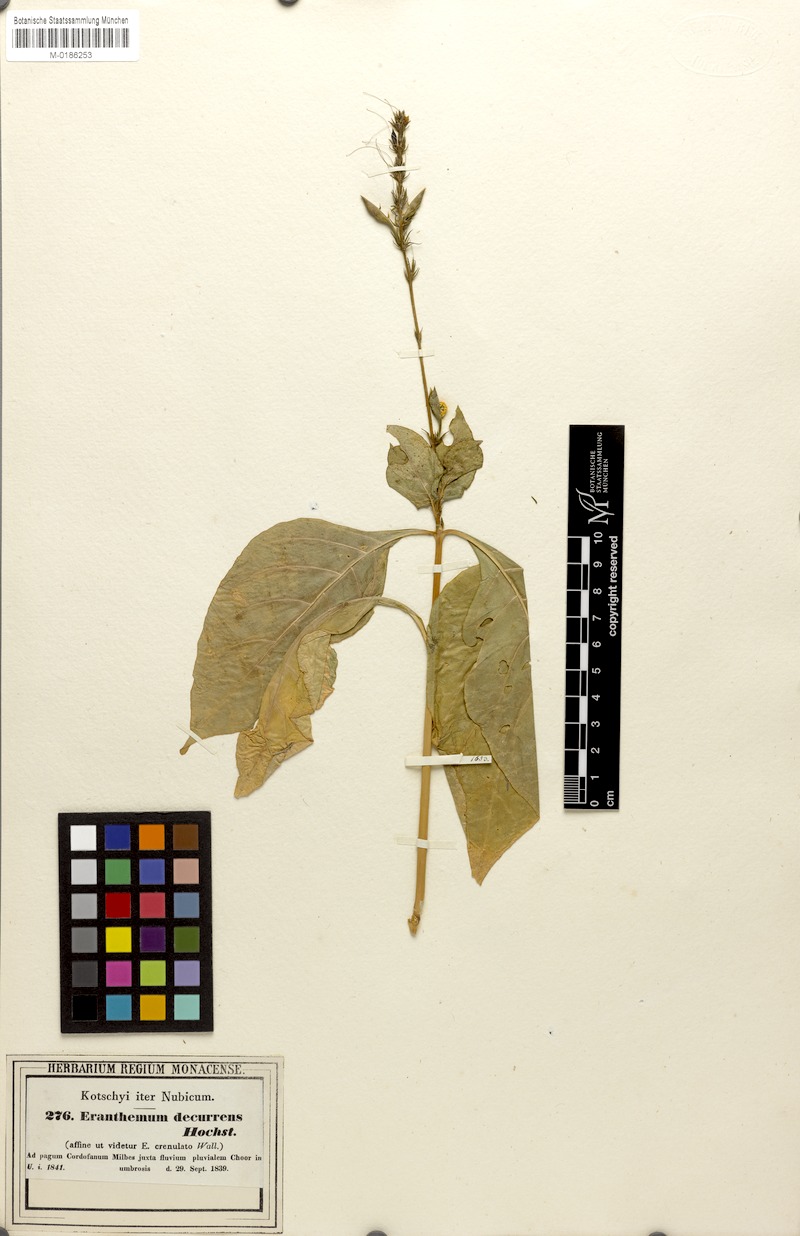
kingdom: Plantae
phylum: Tracheophyta
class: Magnoliopsida
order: Lamiales
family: Acanthaceae
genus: Ruspolia
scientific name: Ruspolia decurrens
